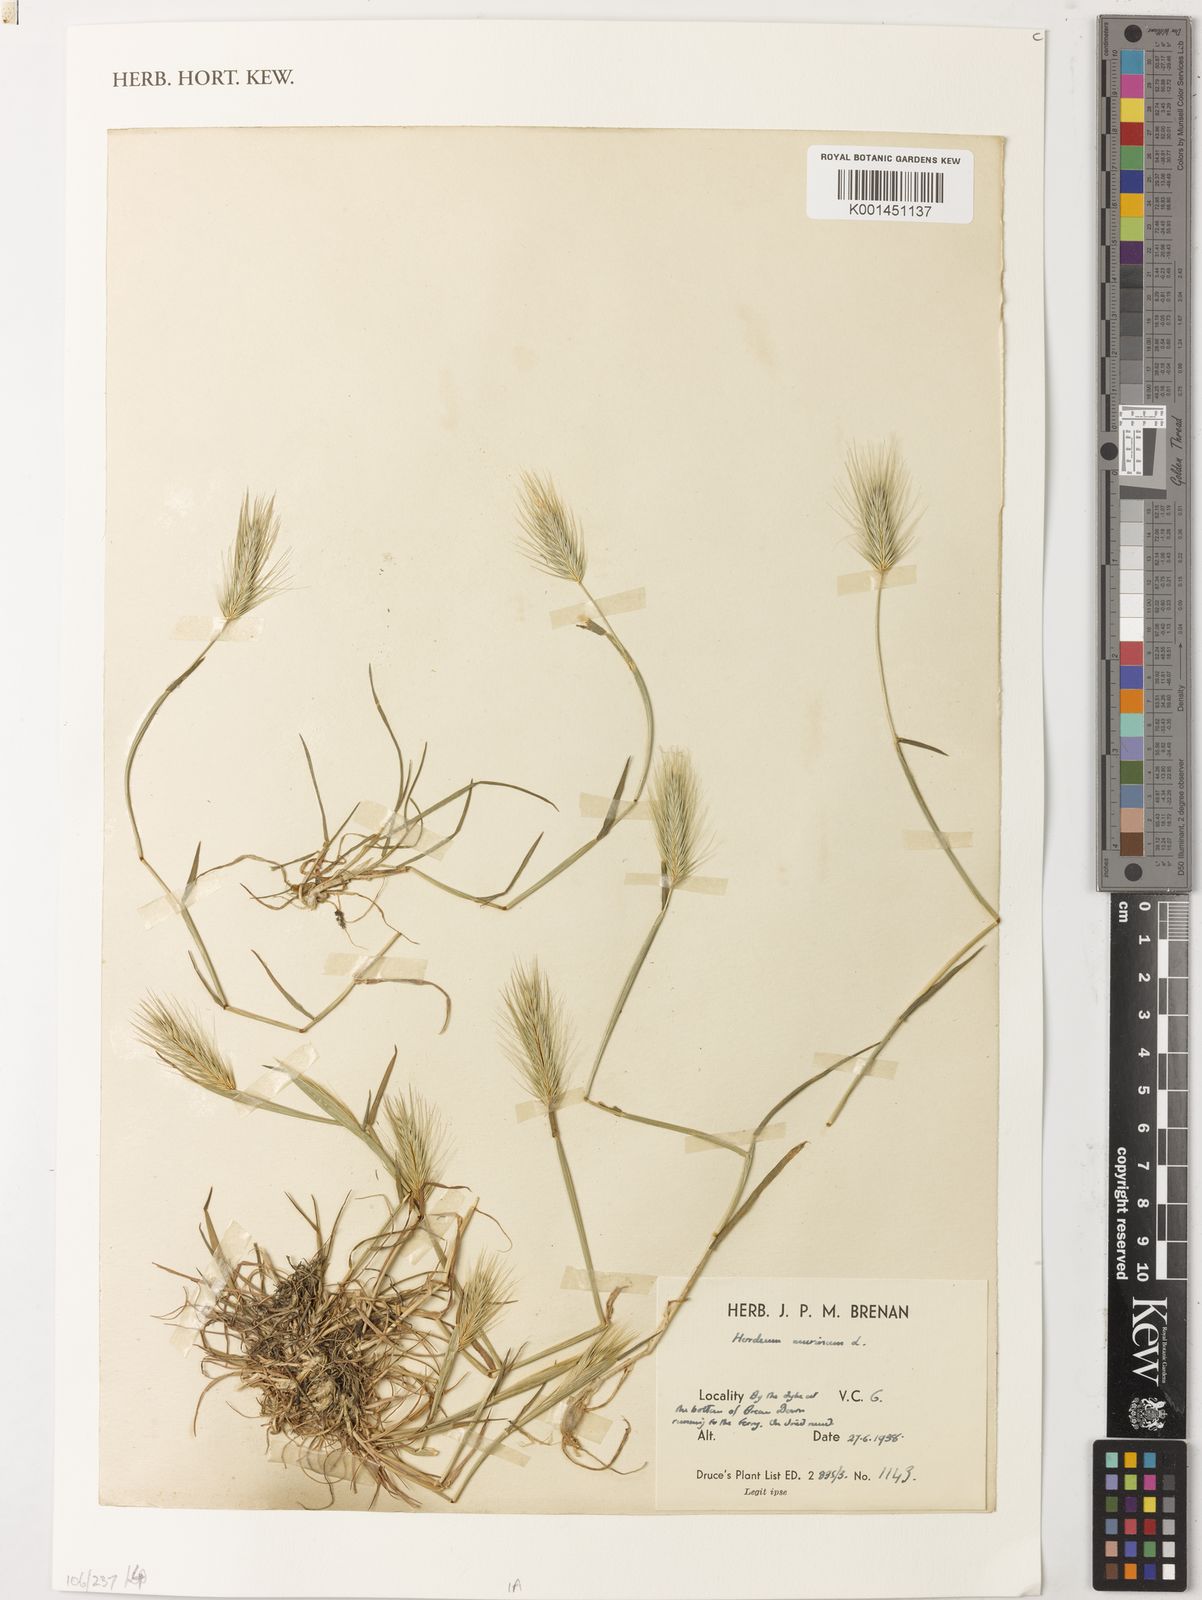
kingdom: Plantae
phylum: Tracheophyta
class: Liliopsida
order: Poales
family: Poaceae
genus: Hordeum
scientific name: Hordeum murinum
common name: Wall barley
